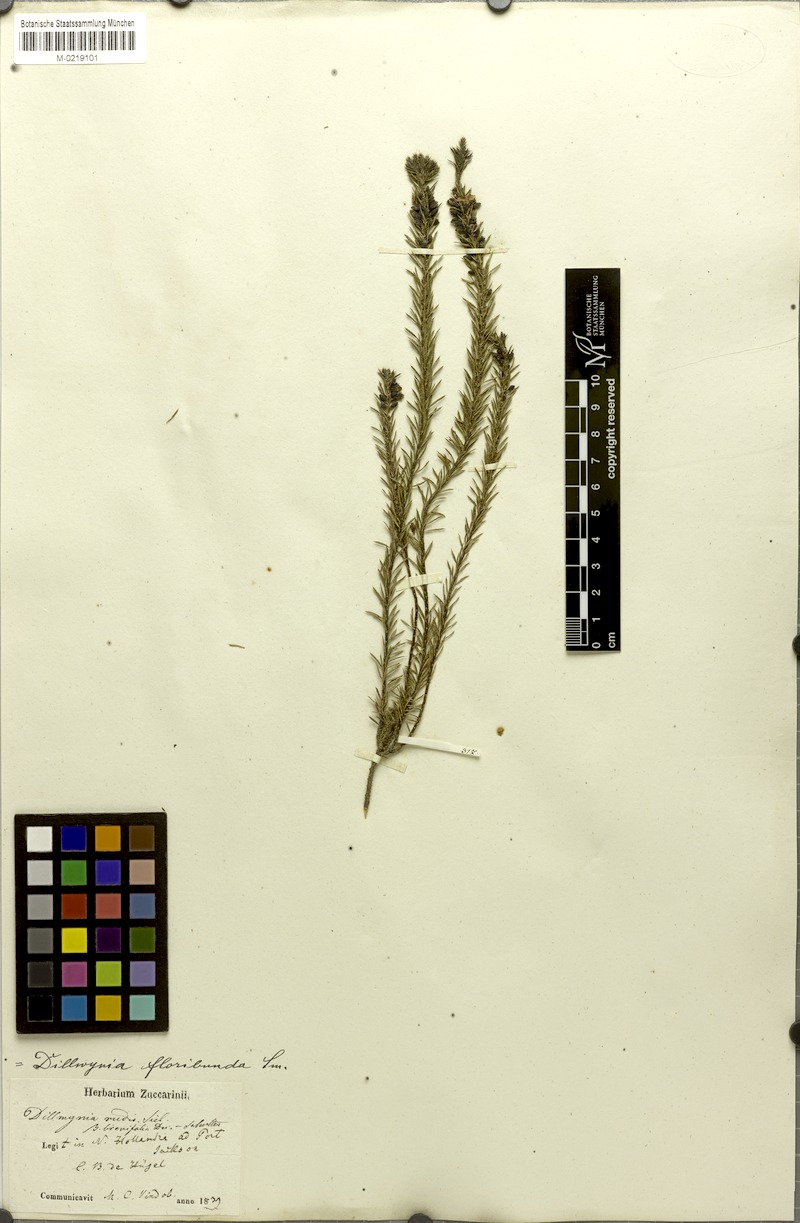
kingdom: Plantae
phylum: Tracheophyta
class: Magnoliopsida
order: Fabales
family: Fabaceae
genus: Dillwynia
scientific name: Dillwynia floribunda
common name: Eggs-and-bacon
